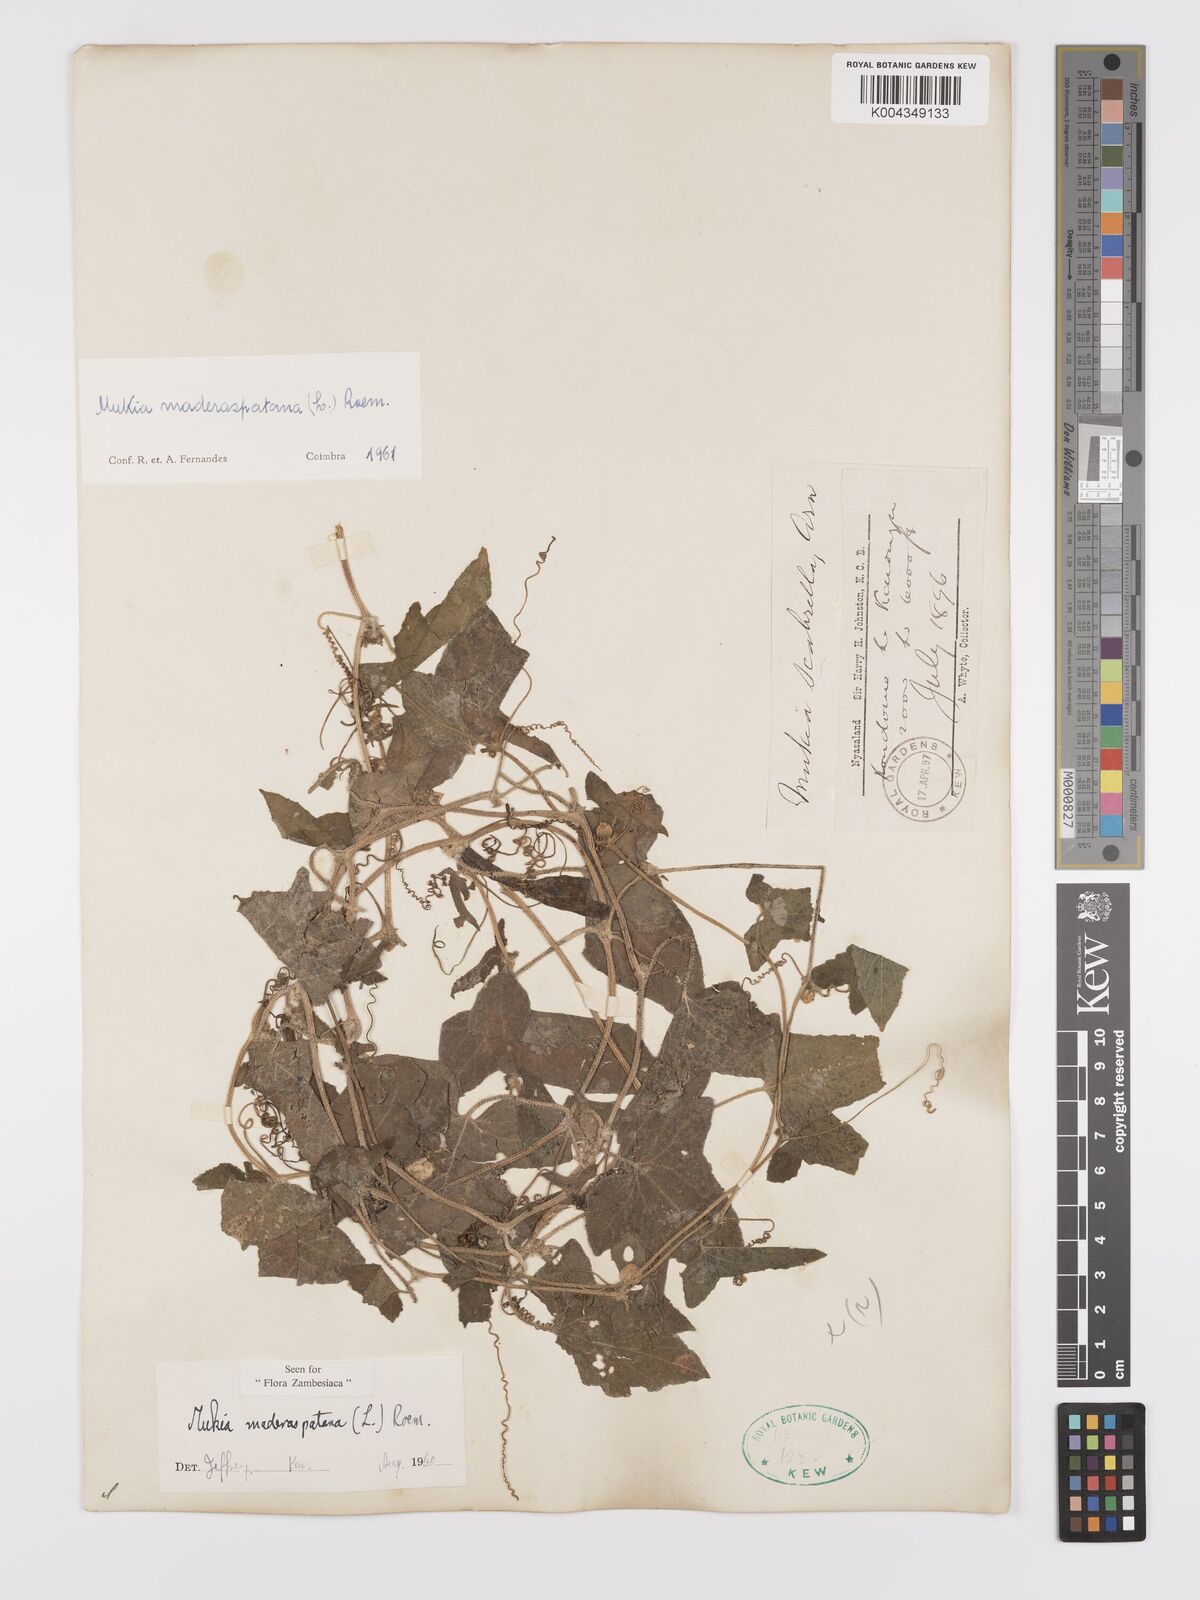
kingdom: Plantae
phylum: Tracheophyta
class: Magnoliopsida
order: Cucurbitales
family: Cucurbitaceae
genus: Cucumis
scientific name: Cucumis maderaspatanus
